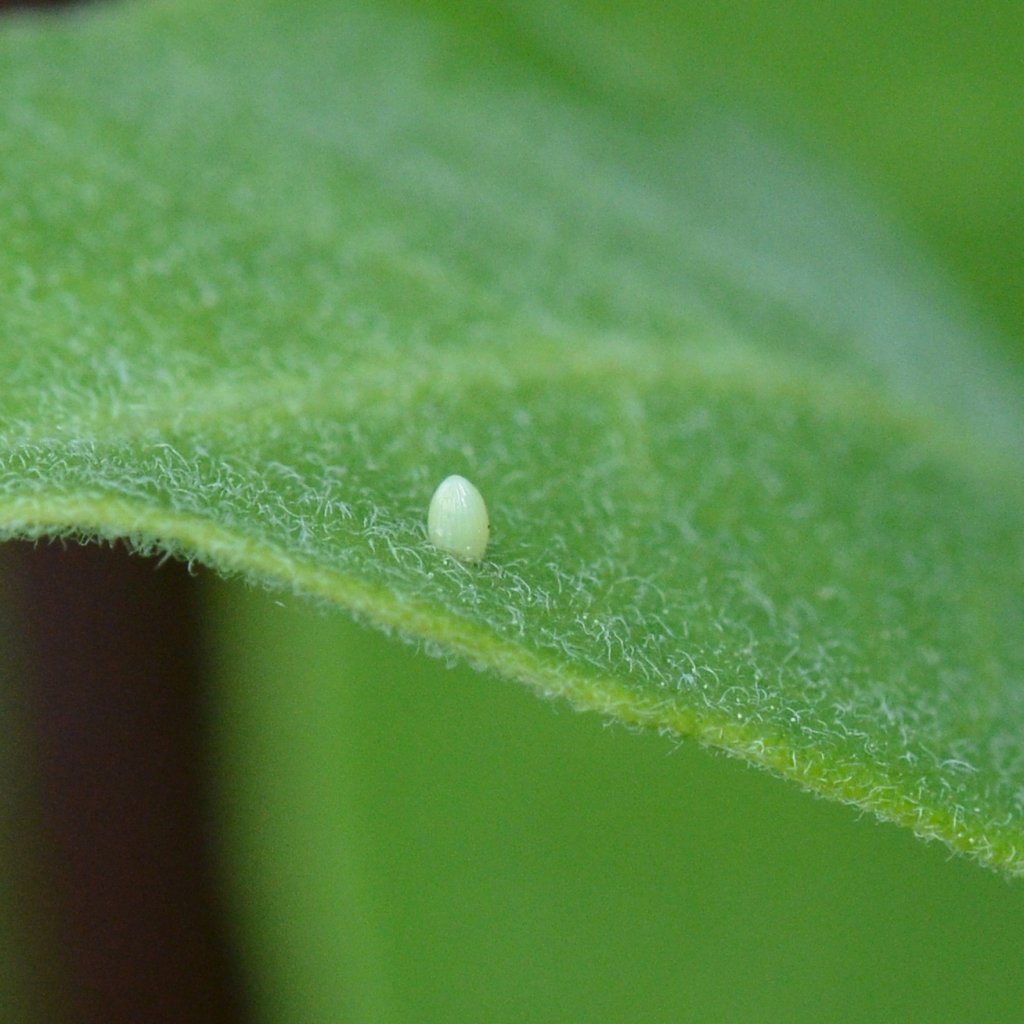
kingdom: Animalia
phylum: Arthropoda
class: Insecta
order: Lepidoptera
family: Nymphalidae
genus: Danaus
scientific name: Danaus plexippus
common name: Monarch
